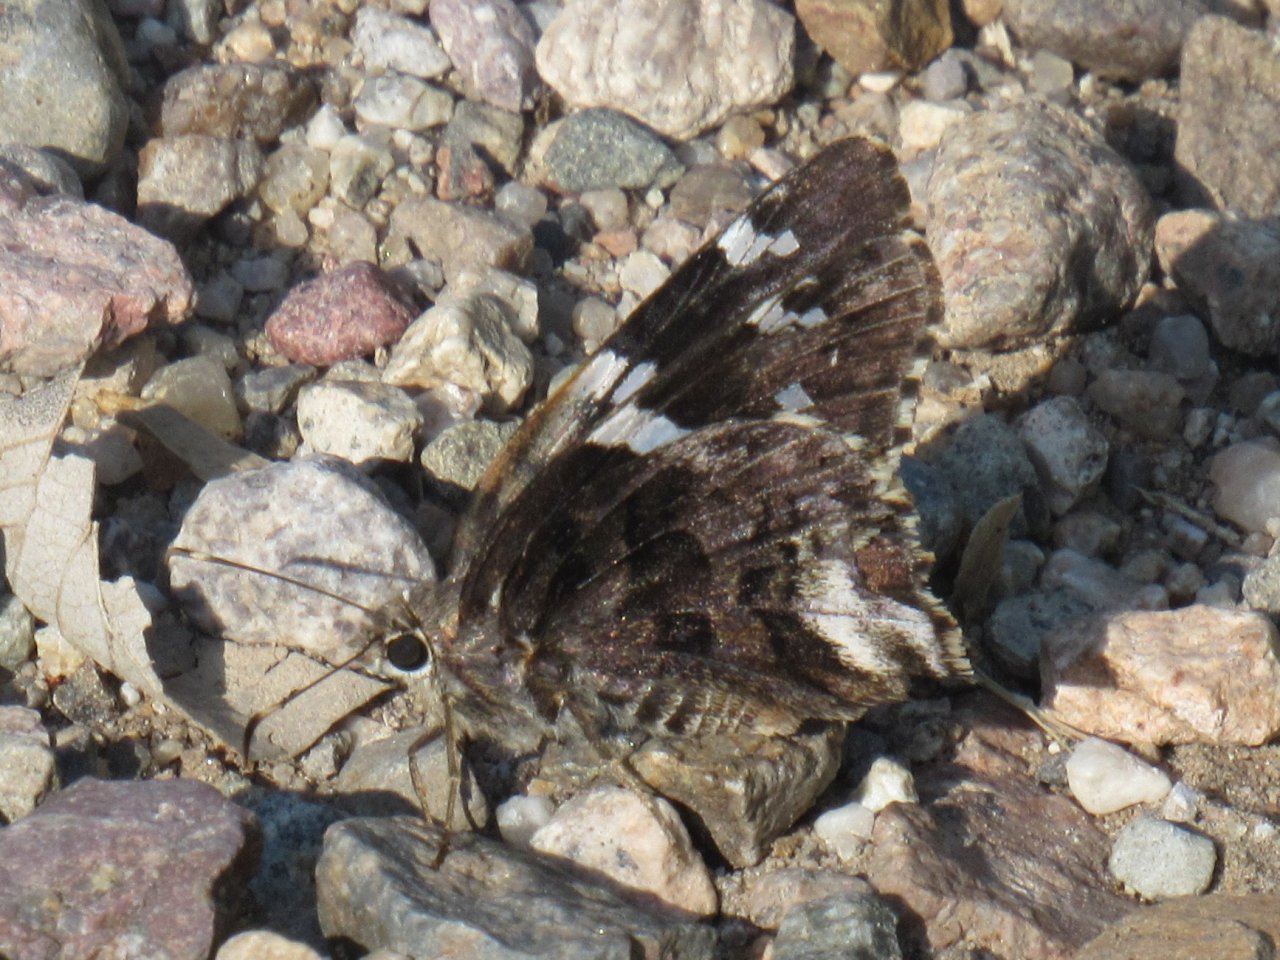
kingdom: Animalia
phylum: Arthropoda
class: Insecta
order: Lepidoptera
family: Hesperiidae
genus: Codatractus
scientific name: Codatractus arizonensis
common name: Arizona Skipper
